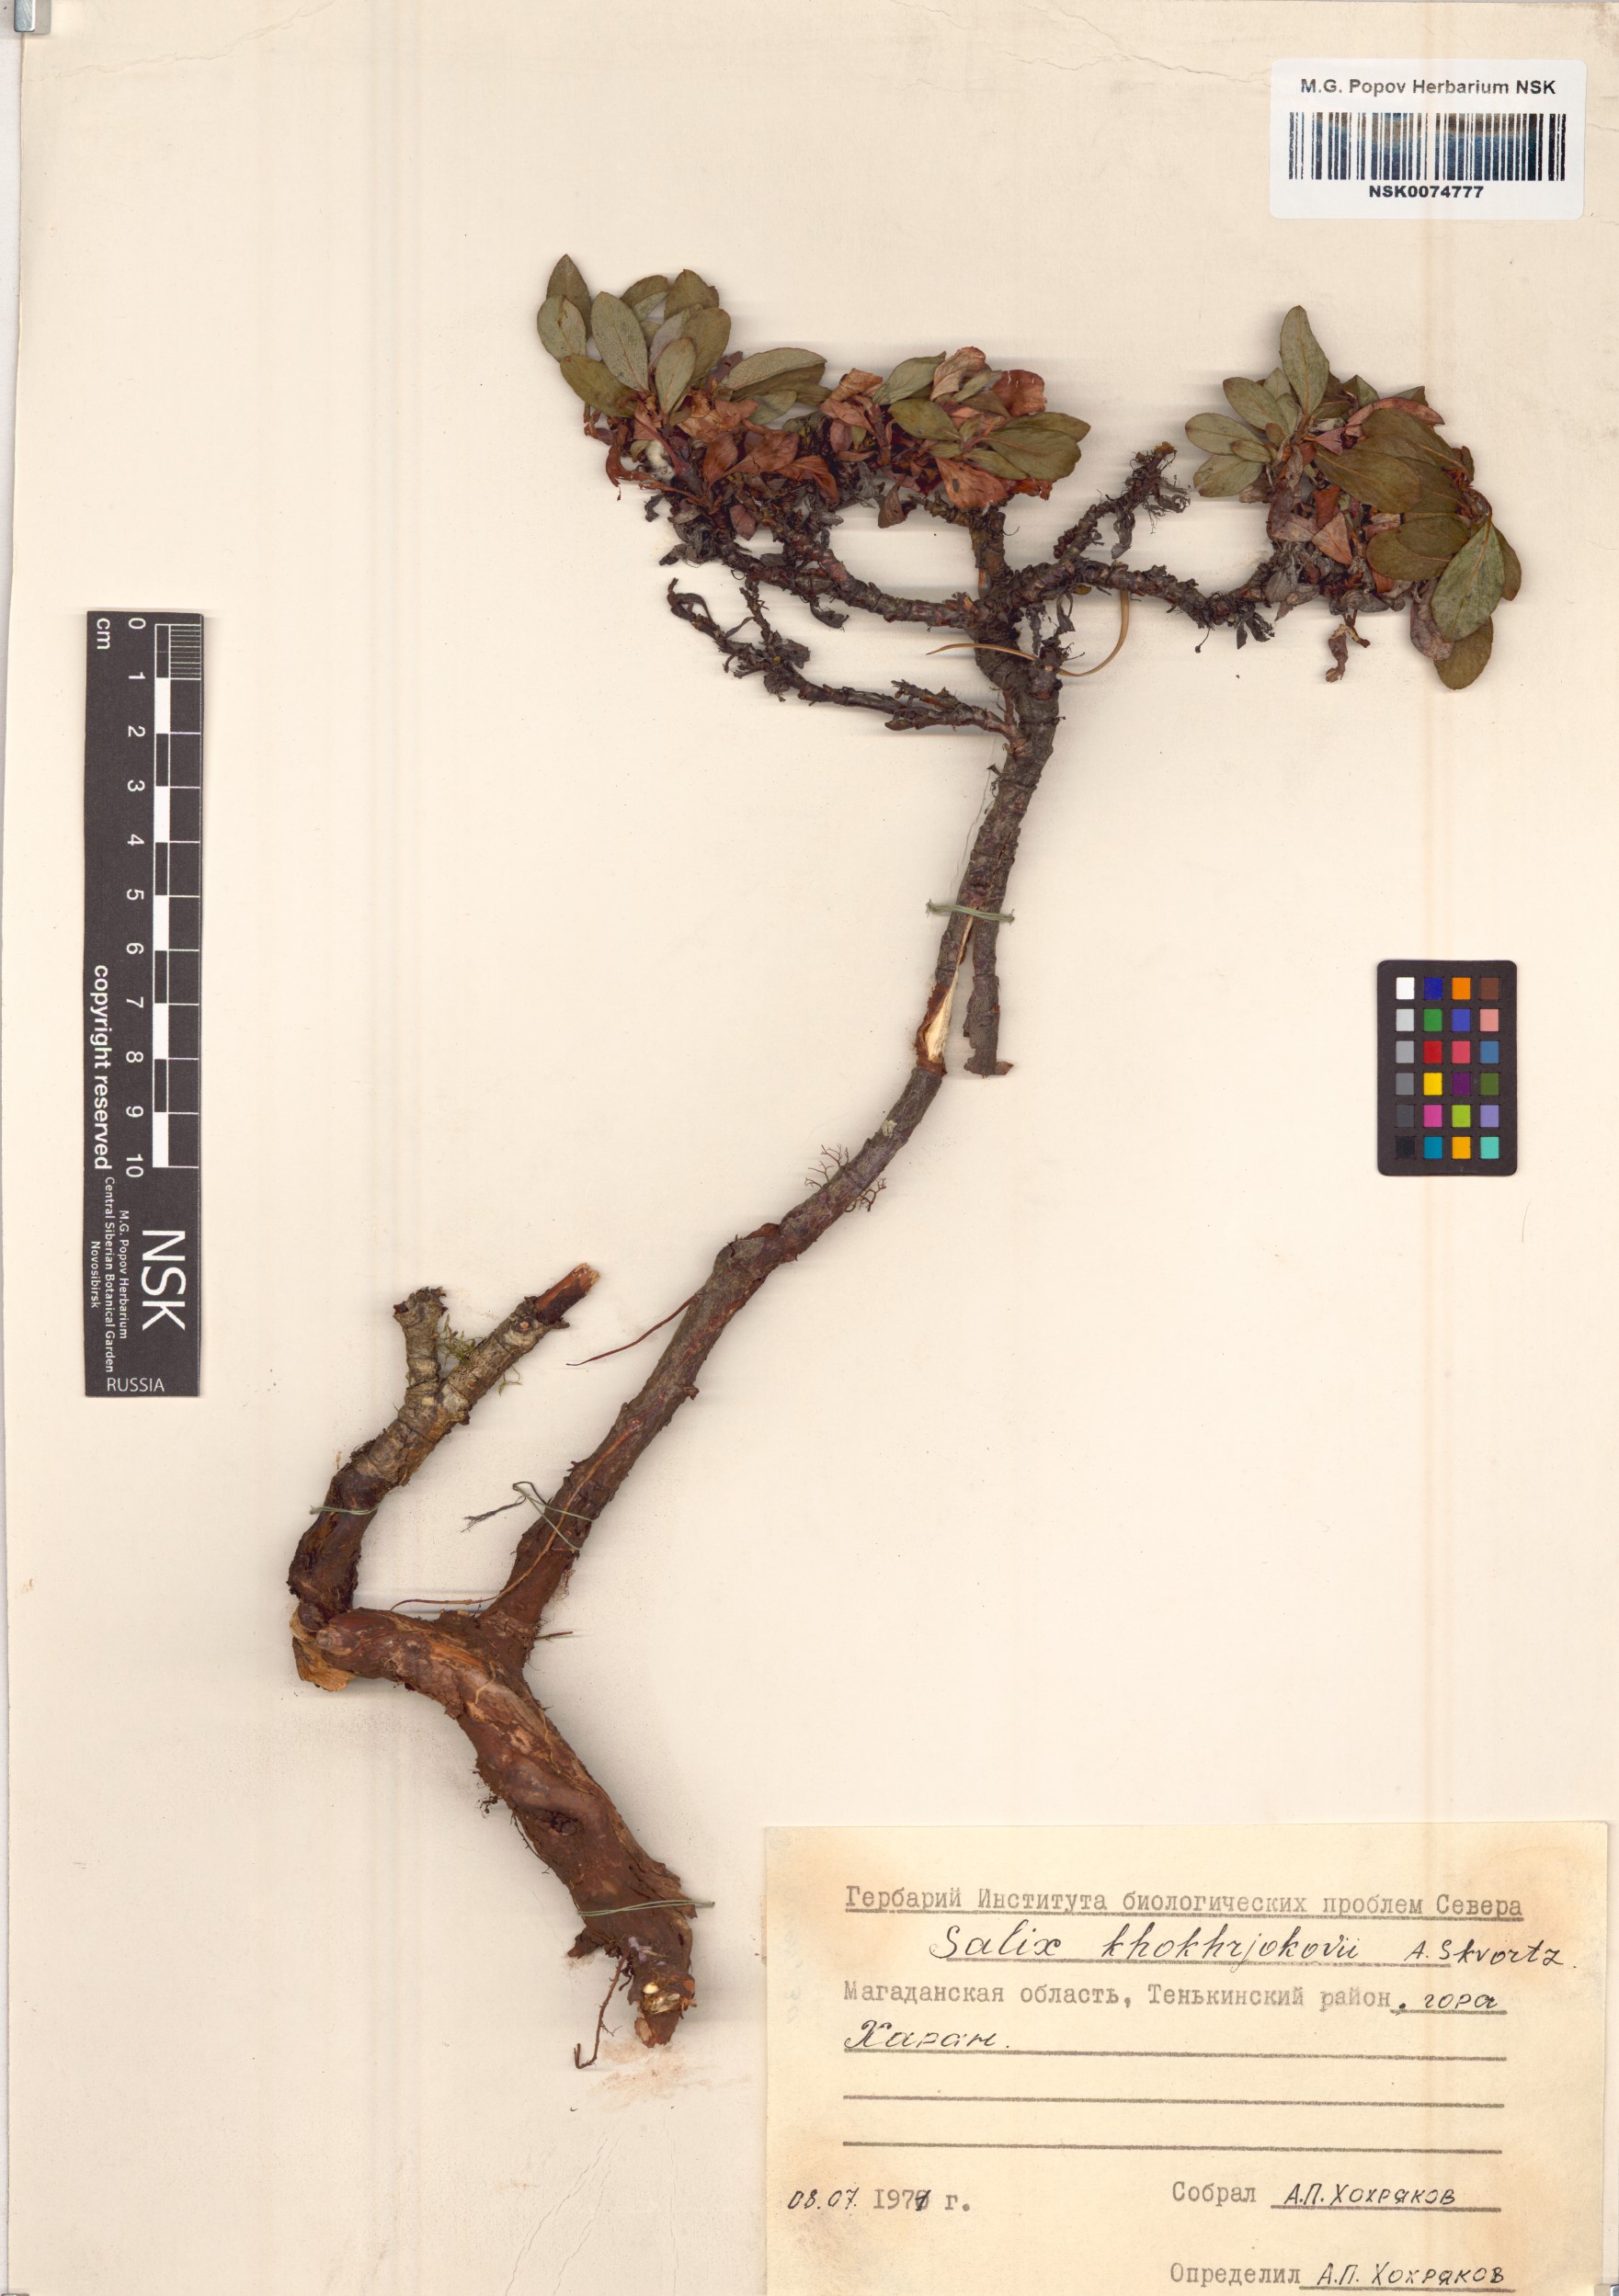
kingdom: Plantae
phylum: Tracheophyta
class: Magnoliopsida
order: Malpighiales
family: Salicaceae
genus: Salix
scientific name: Salix khokhriakovii
